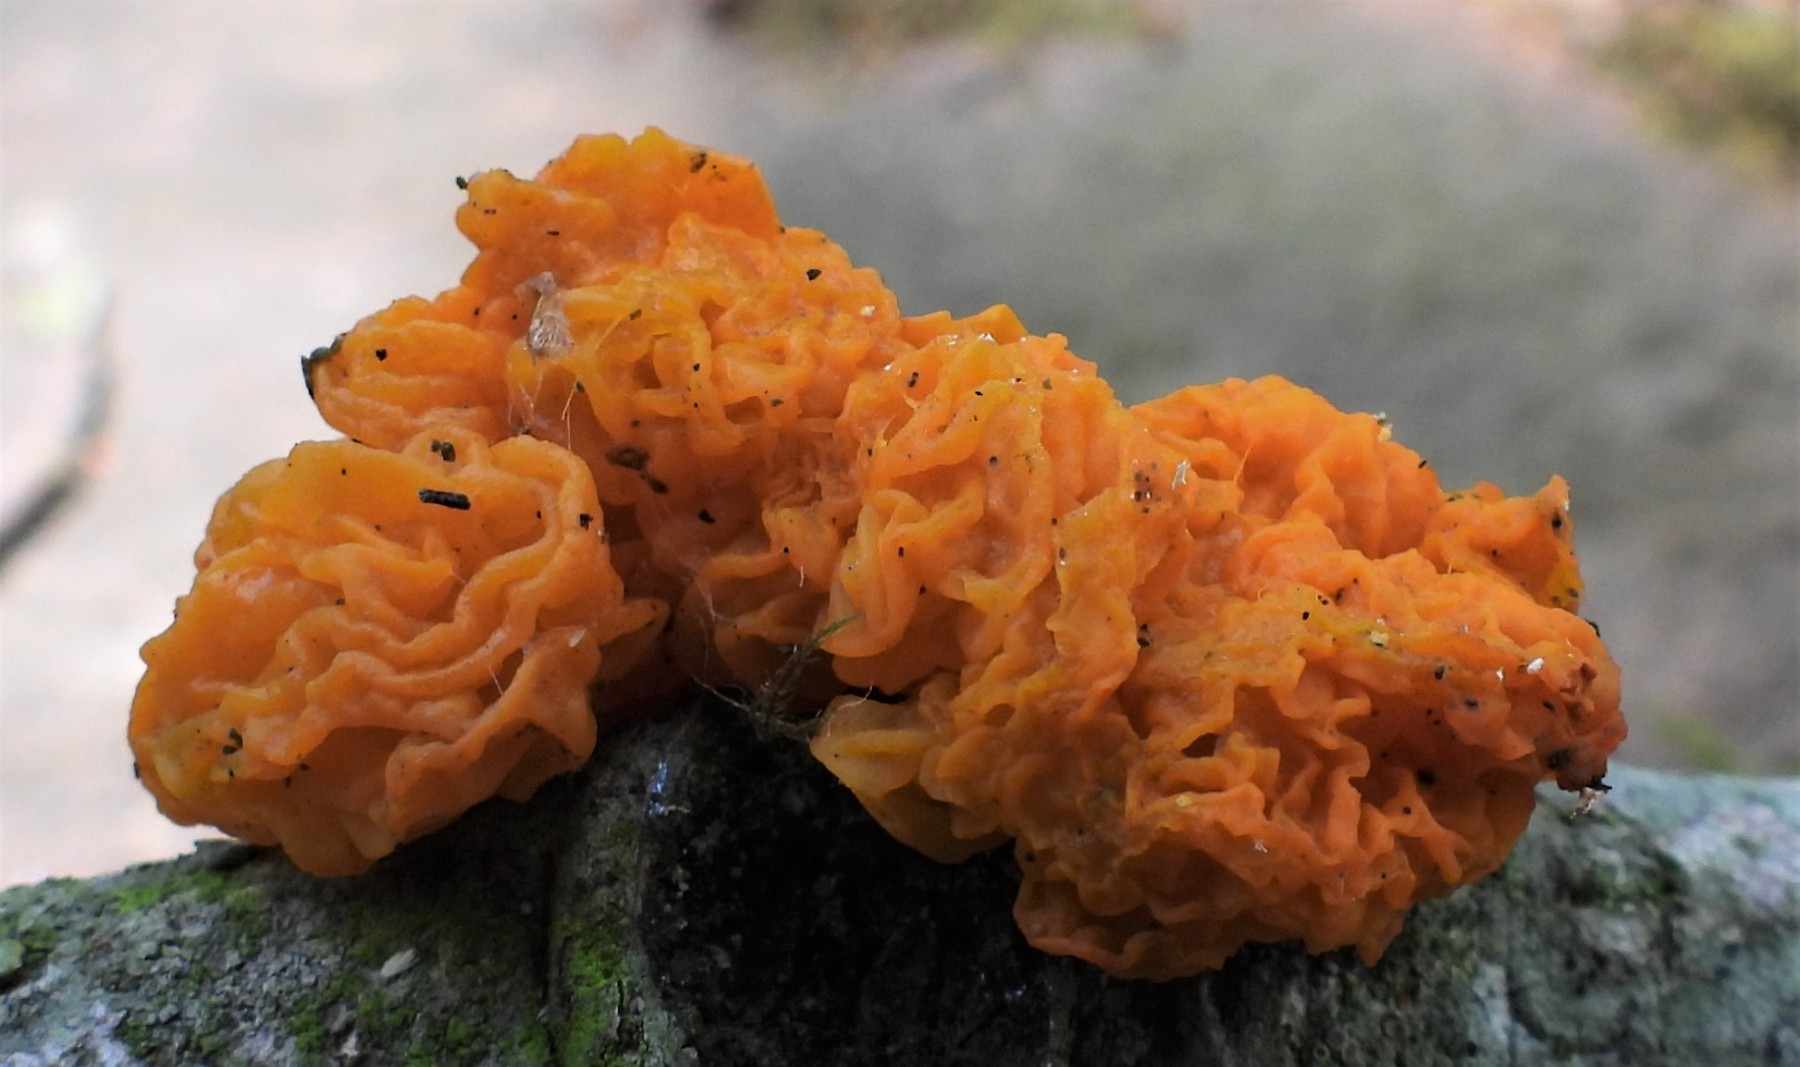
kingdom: Fungi
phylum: Basidiomycota
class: Tremellomycetes
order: Tremellales
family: Tremellaceae
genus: Tremella
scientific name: Tremella mesenterica
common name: gul bævresvamp
